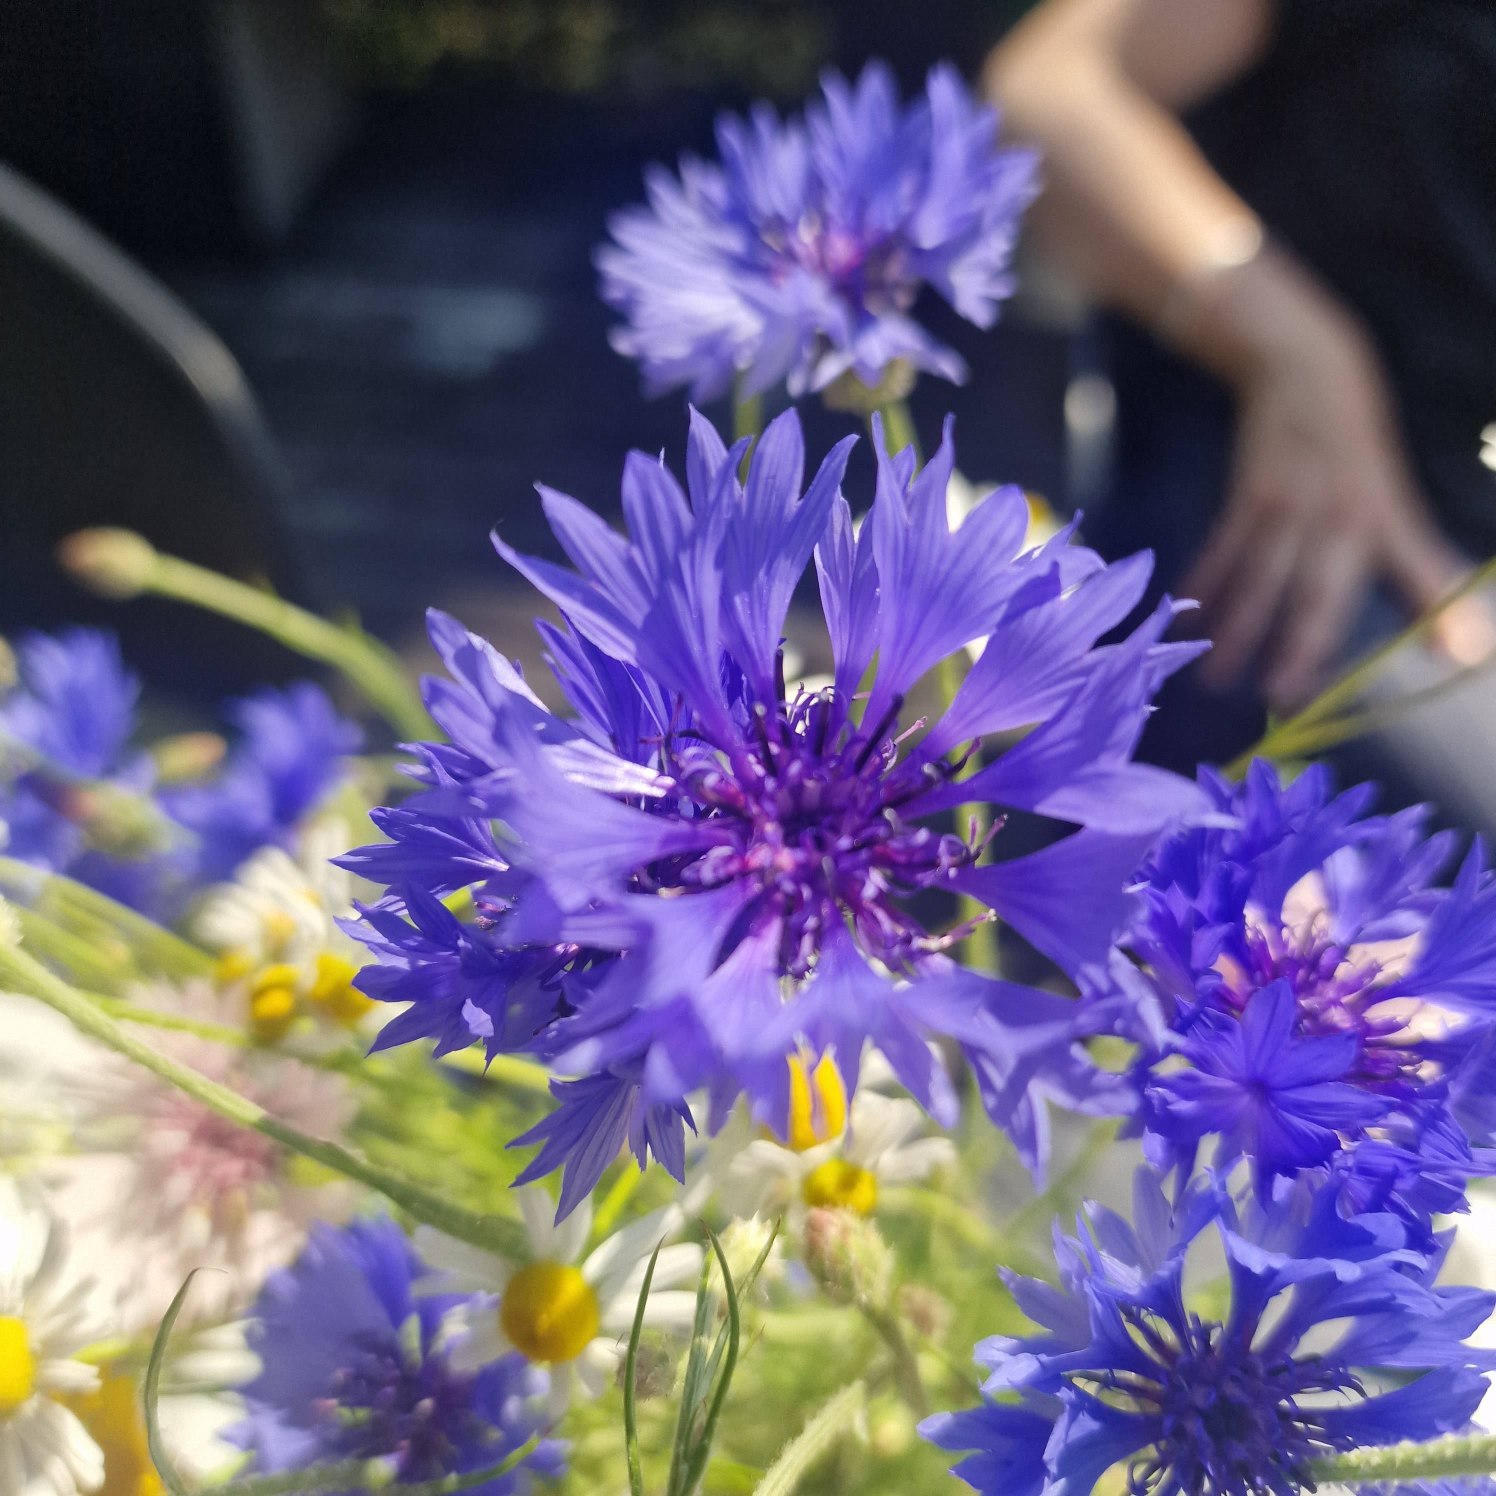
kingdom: Plantae
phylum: Tracheophyta
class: Magnoliopsida
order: Asterales
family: Asteraceae
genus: Centaurea
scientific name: Centaurea cyanus
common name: Kornblomst
